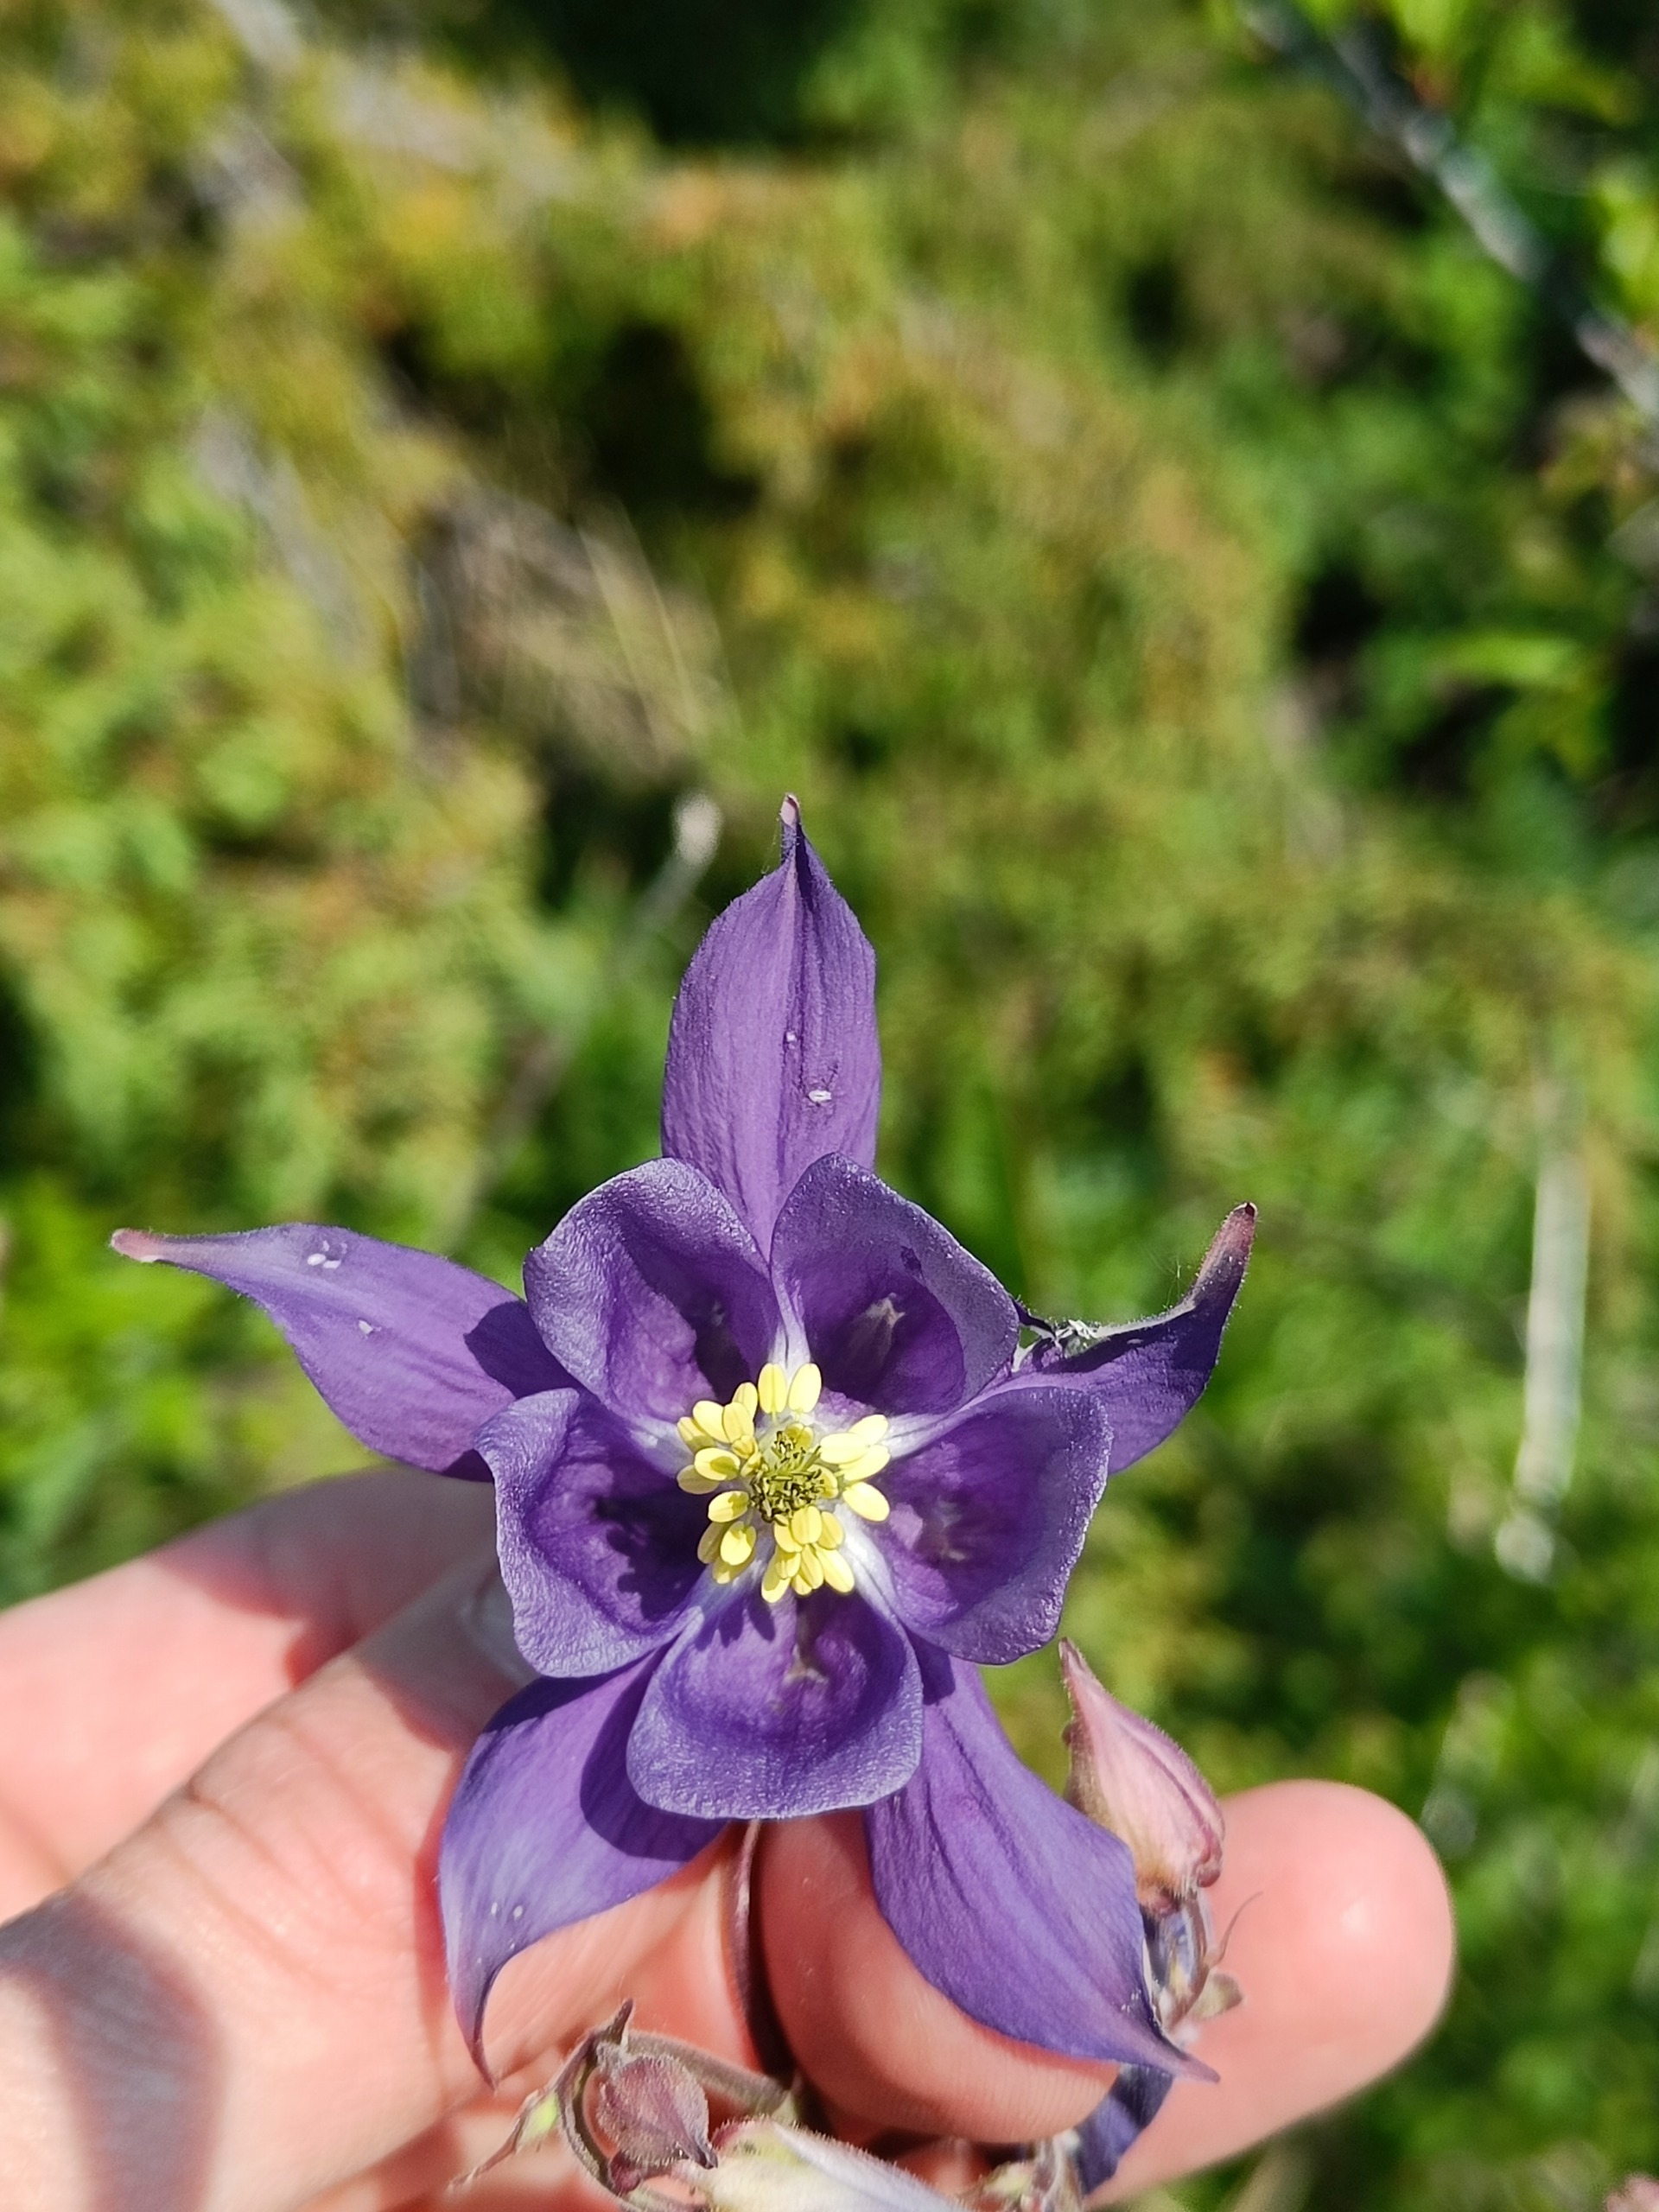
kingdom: Plantae
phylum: Tracheophyta
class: Magnoliopsida
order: Ranunculales
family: Ranunculaceae
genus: Aquilegia
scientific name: Aquilegia vulgaris
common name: Akeleje
